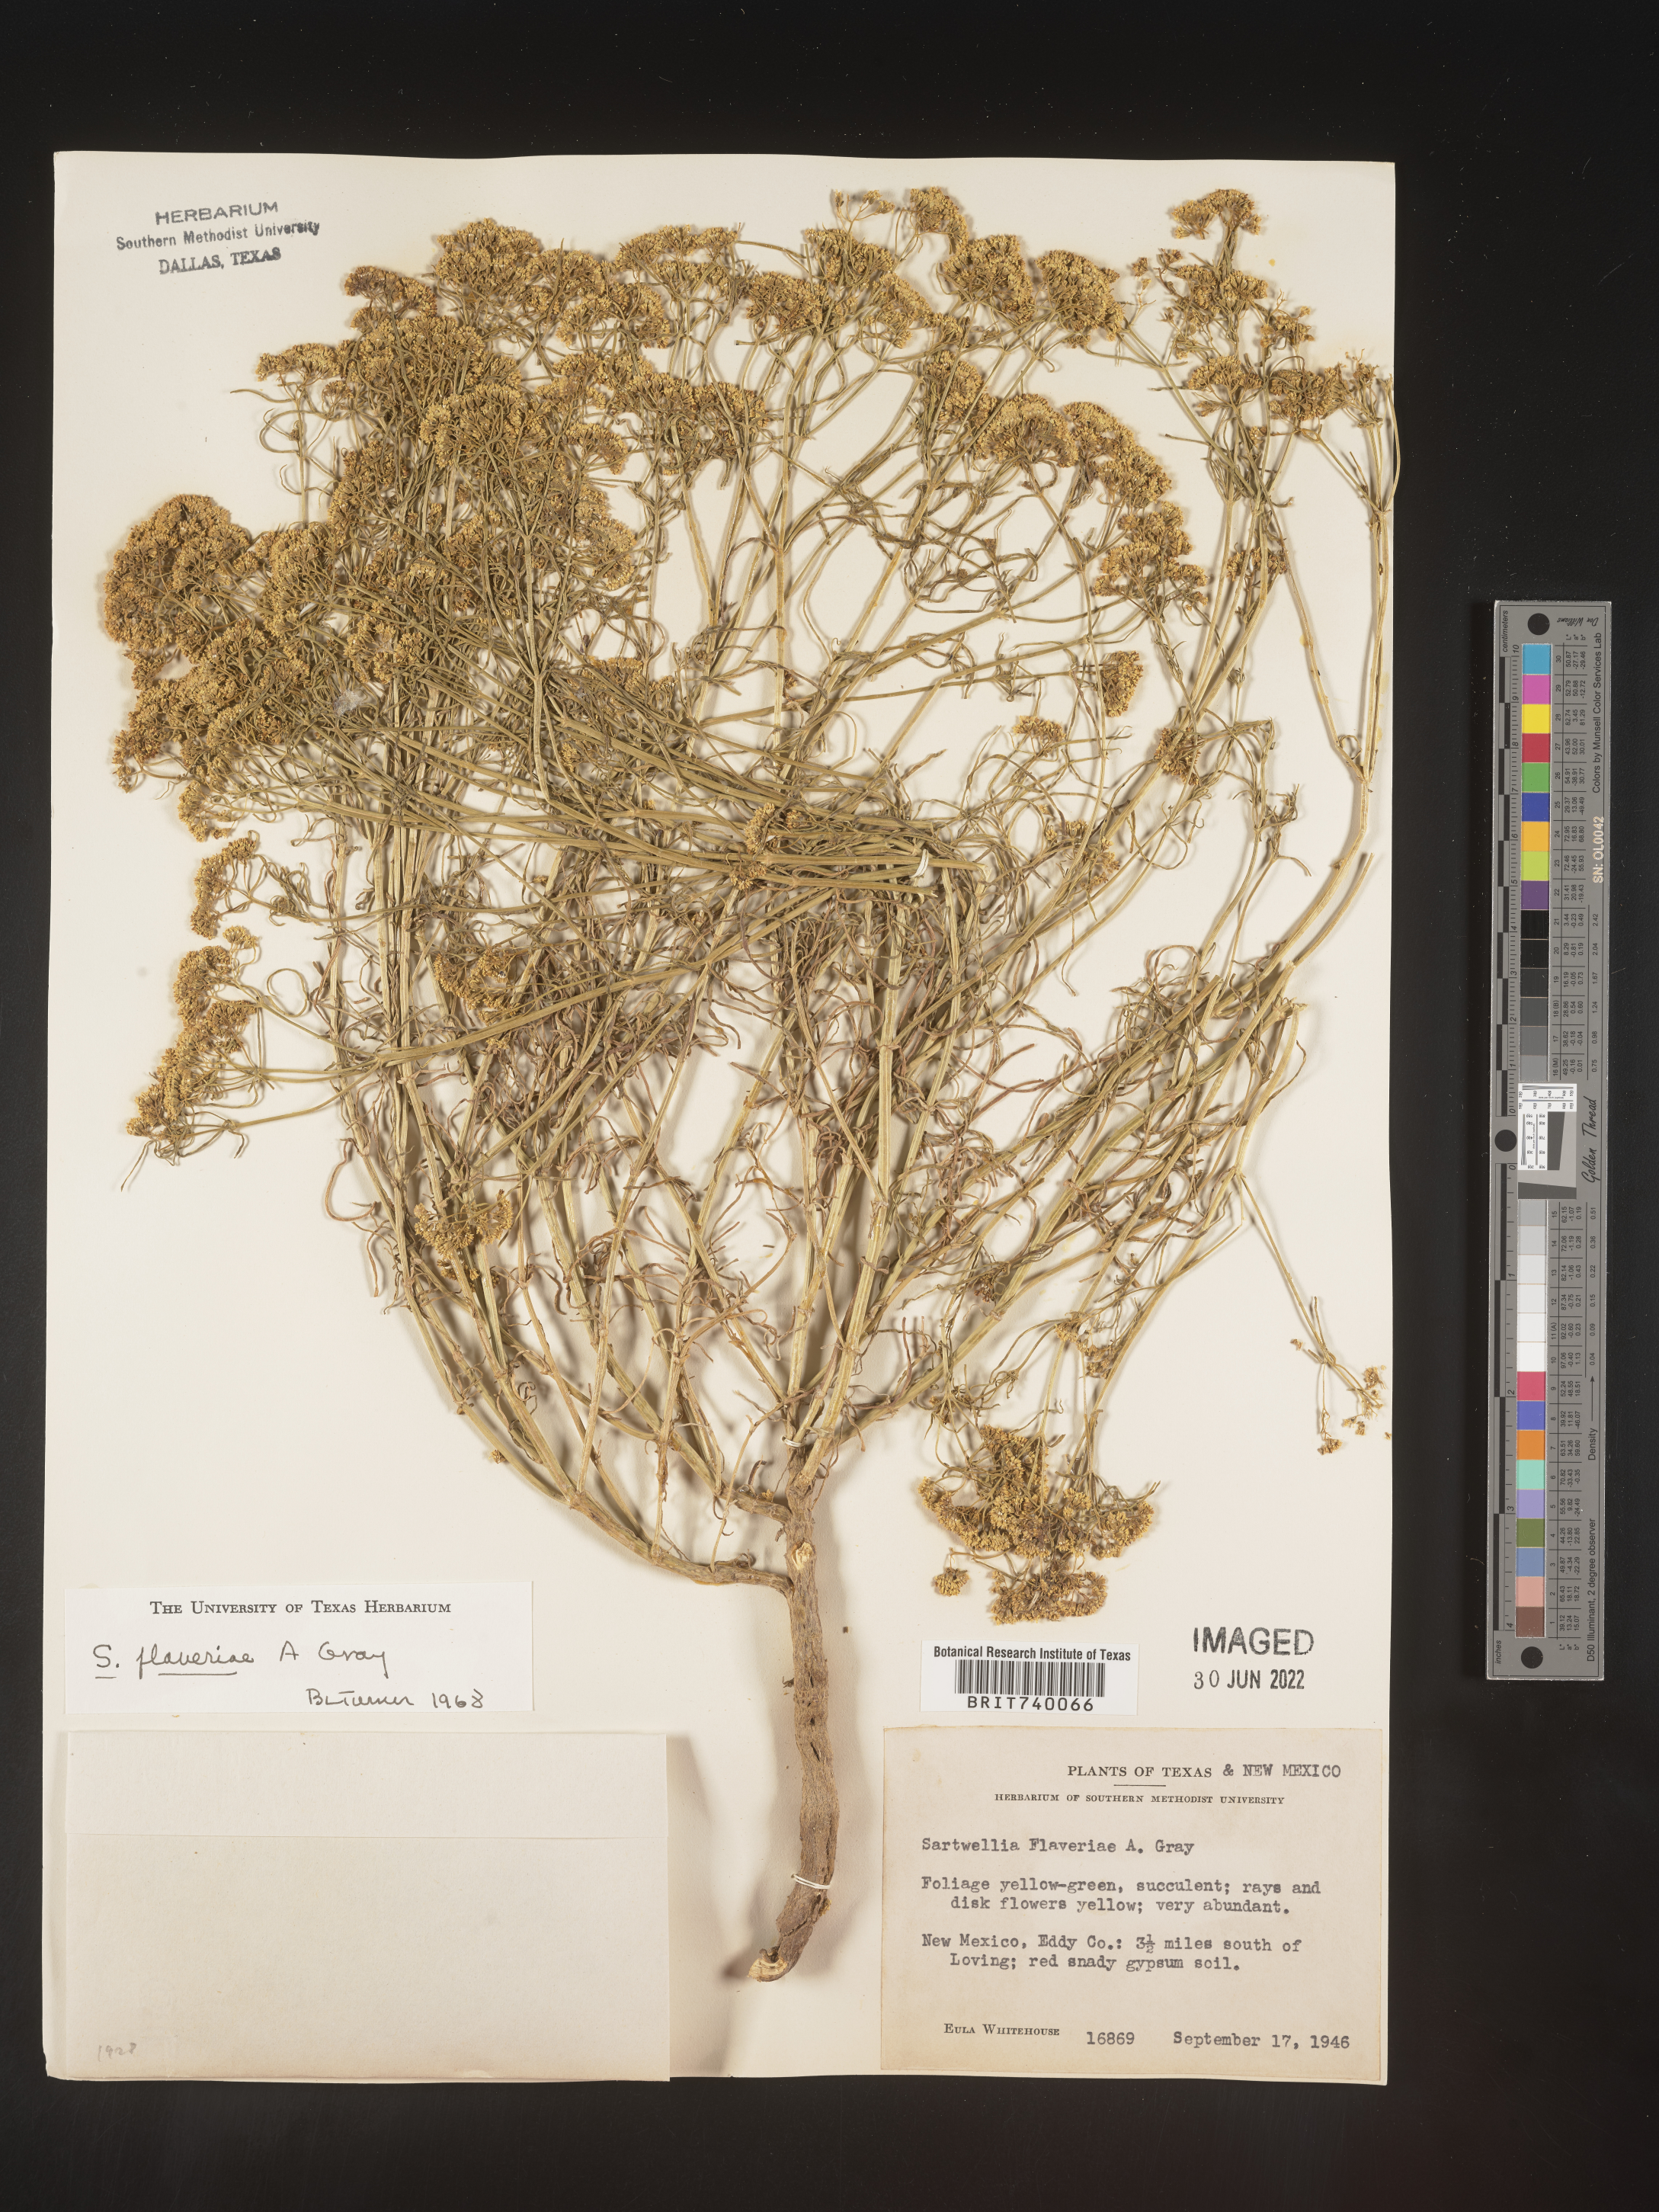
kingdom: Plantae
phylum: Tracheophyta
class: Magnoliopsida
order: Asterales
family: Asteraceae
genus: Sartwellia
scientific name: Sartwellia
